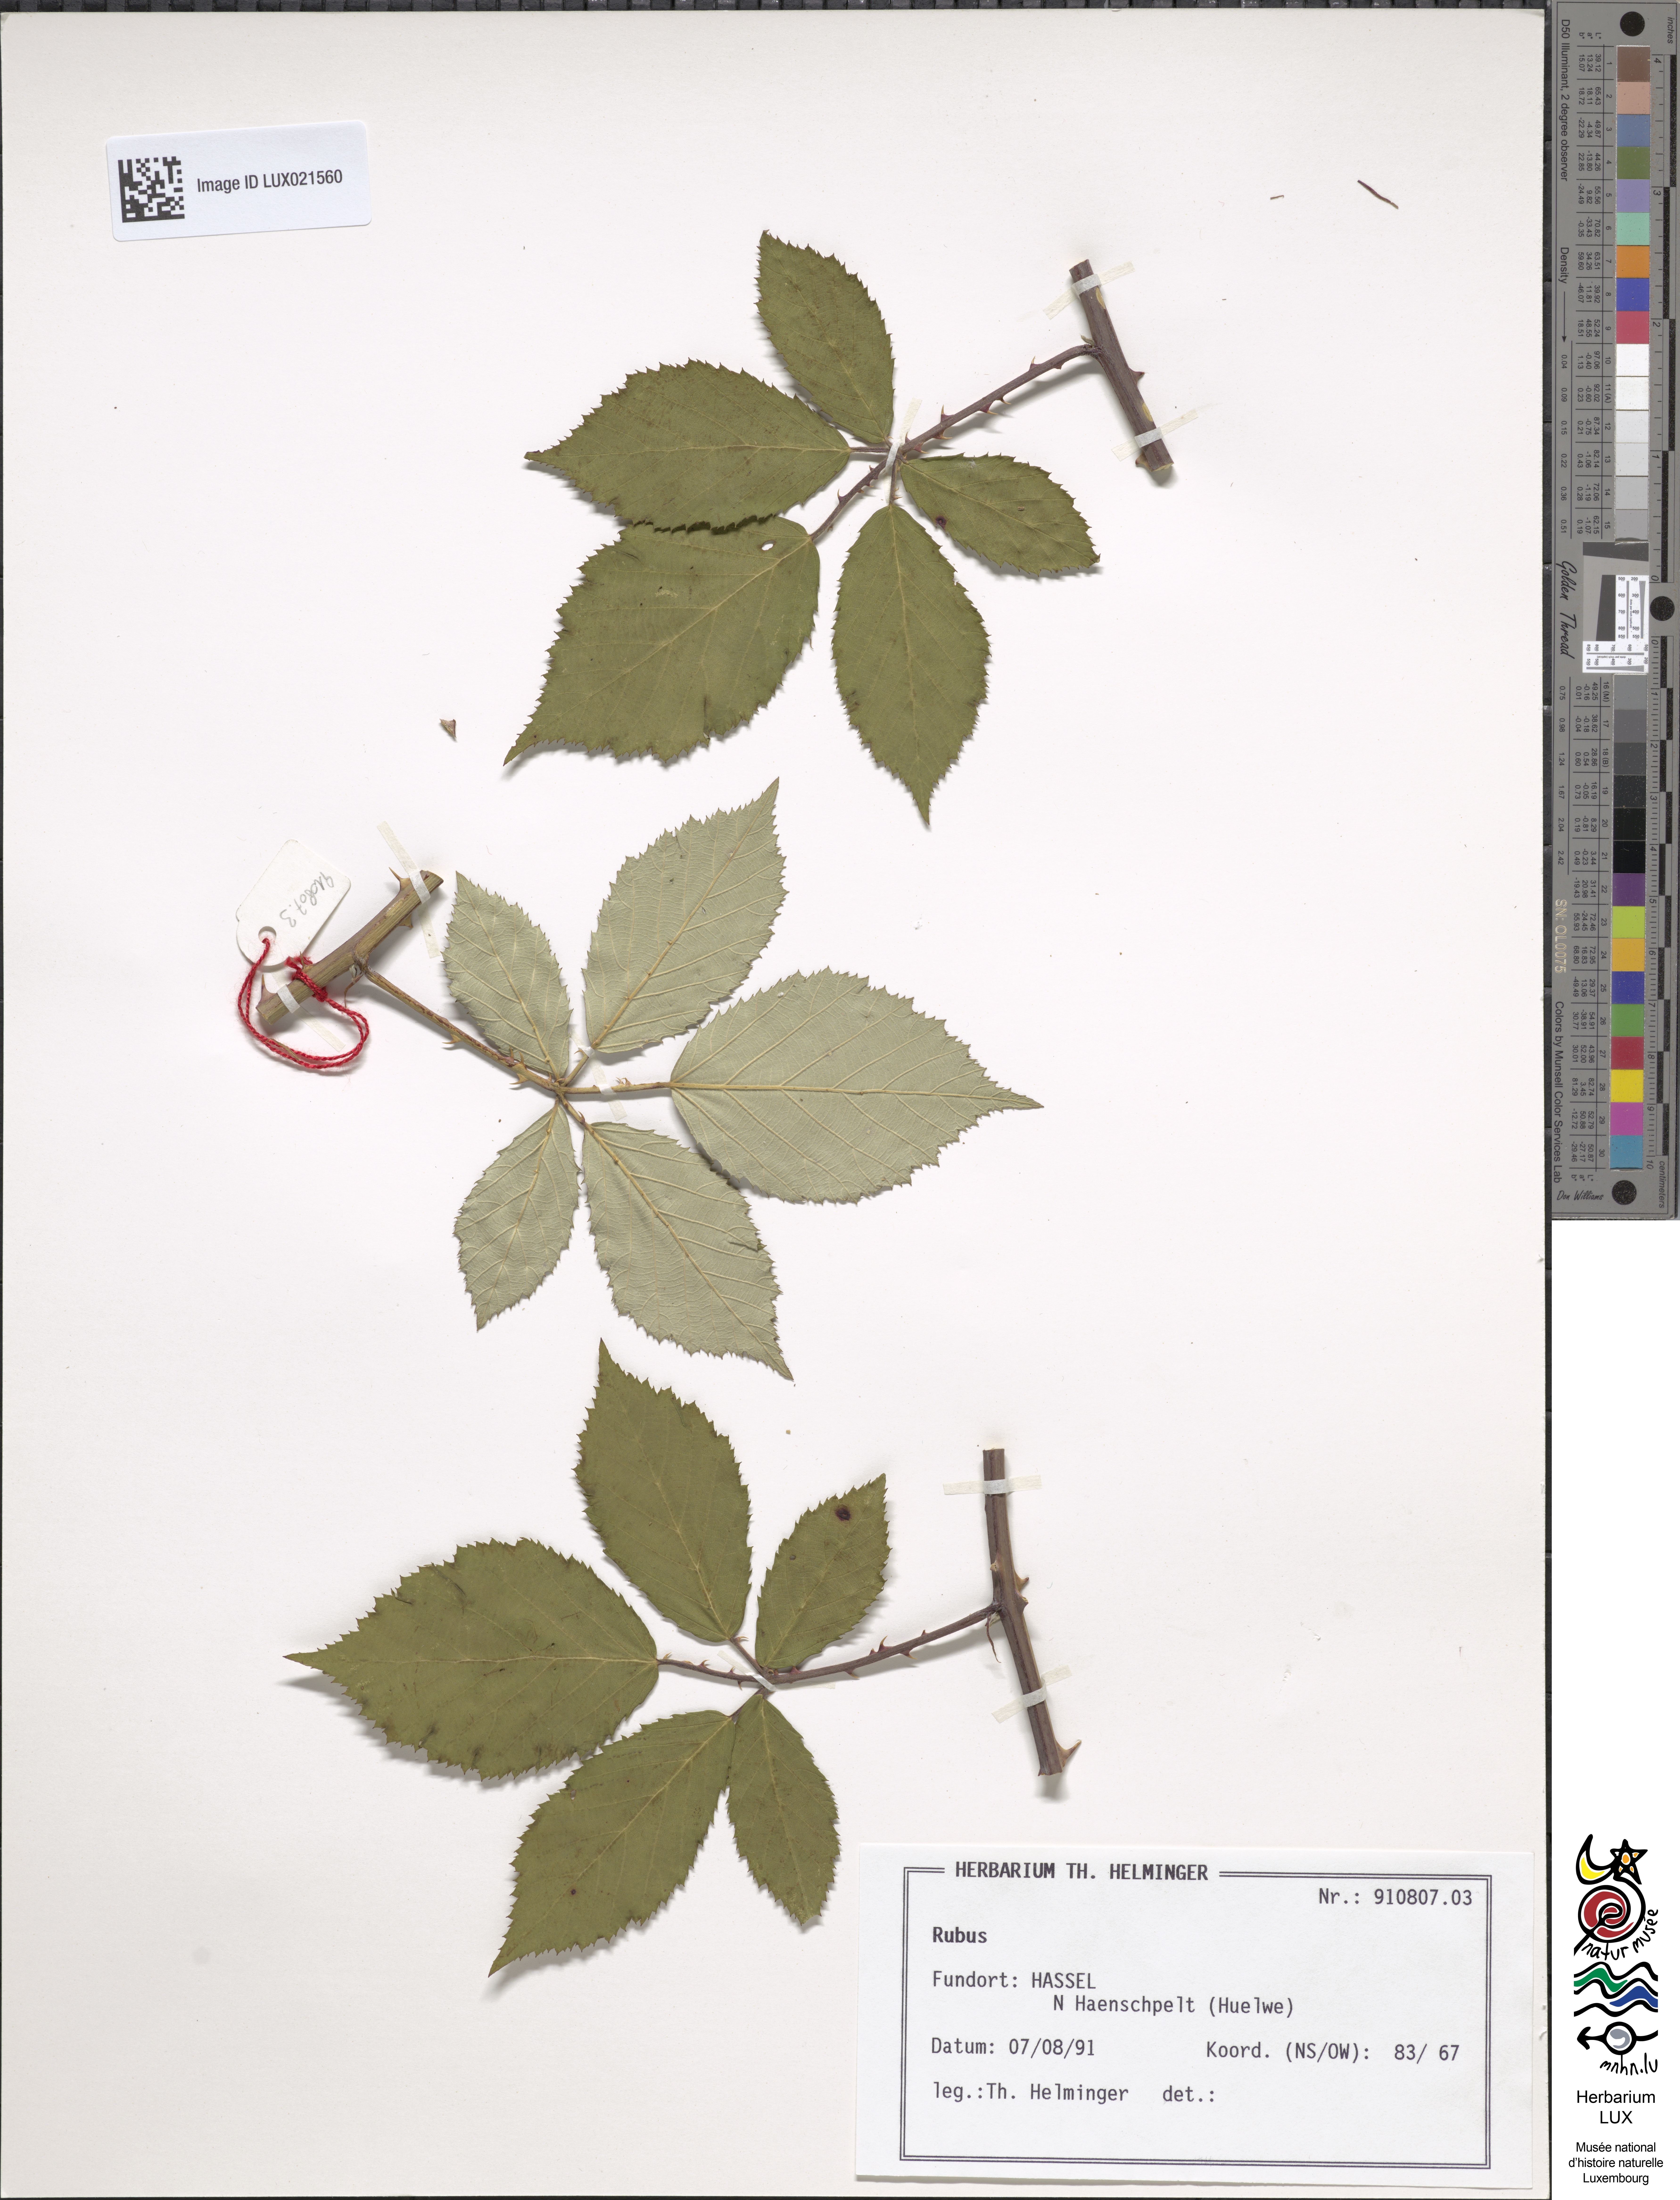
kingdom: Plantae
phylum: Tracheophyta
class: Magnoliopsida
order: Rosales
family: Rosaceae
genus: Rubus
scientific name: Rubus
